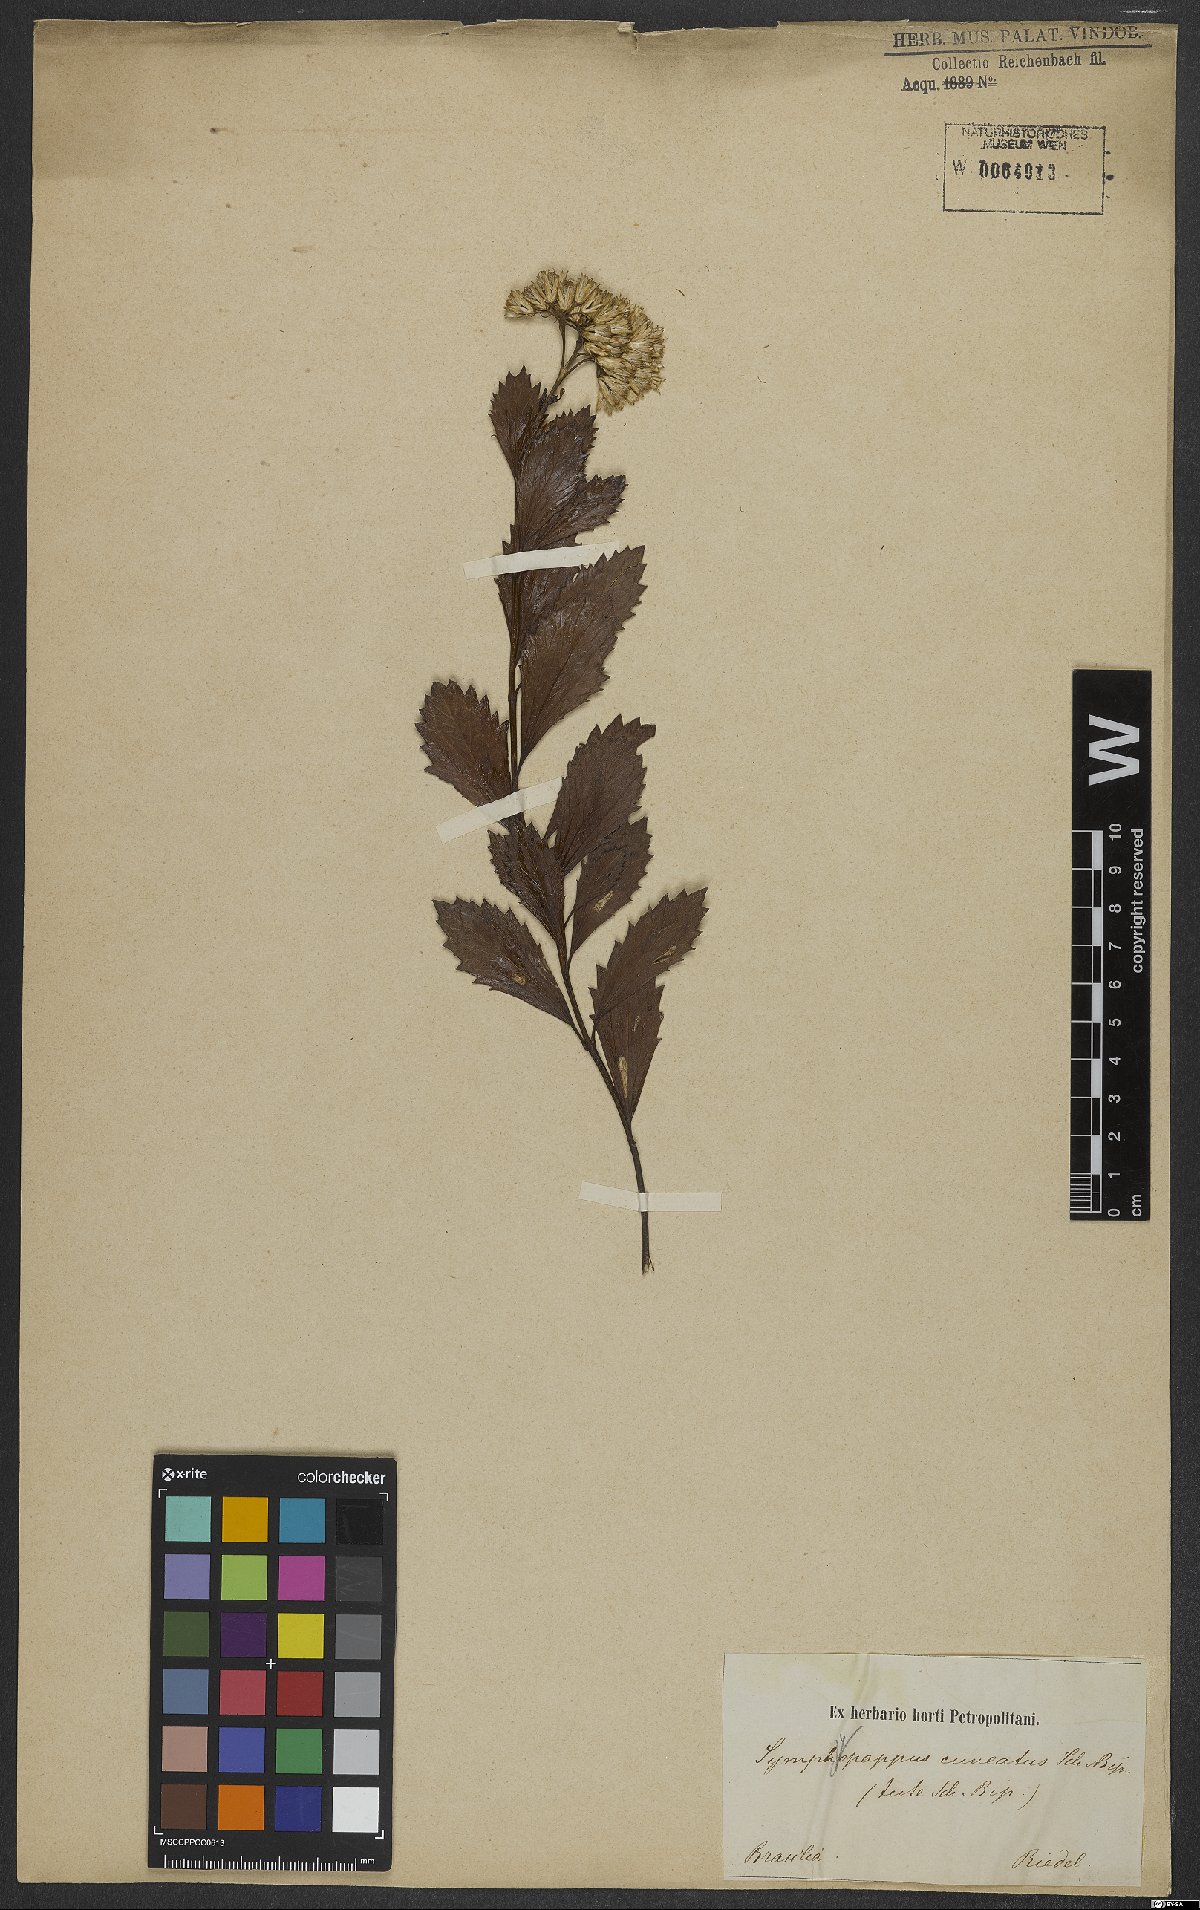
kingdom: Plantae
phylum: Tracheophyta
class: Magnoliopsida
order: Asterales
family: Asteraceae
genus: Symphyopappus
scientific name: Symphyopappus cuneatus
